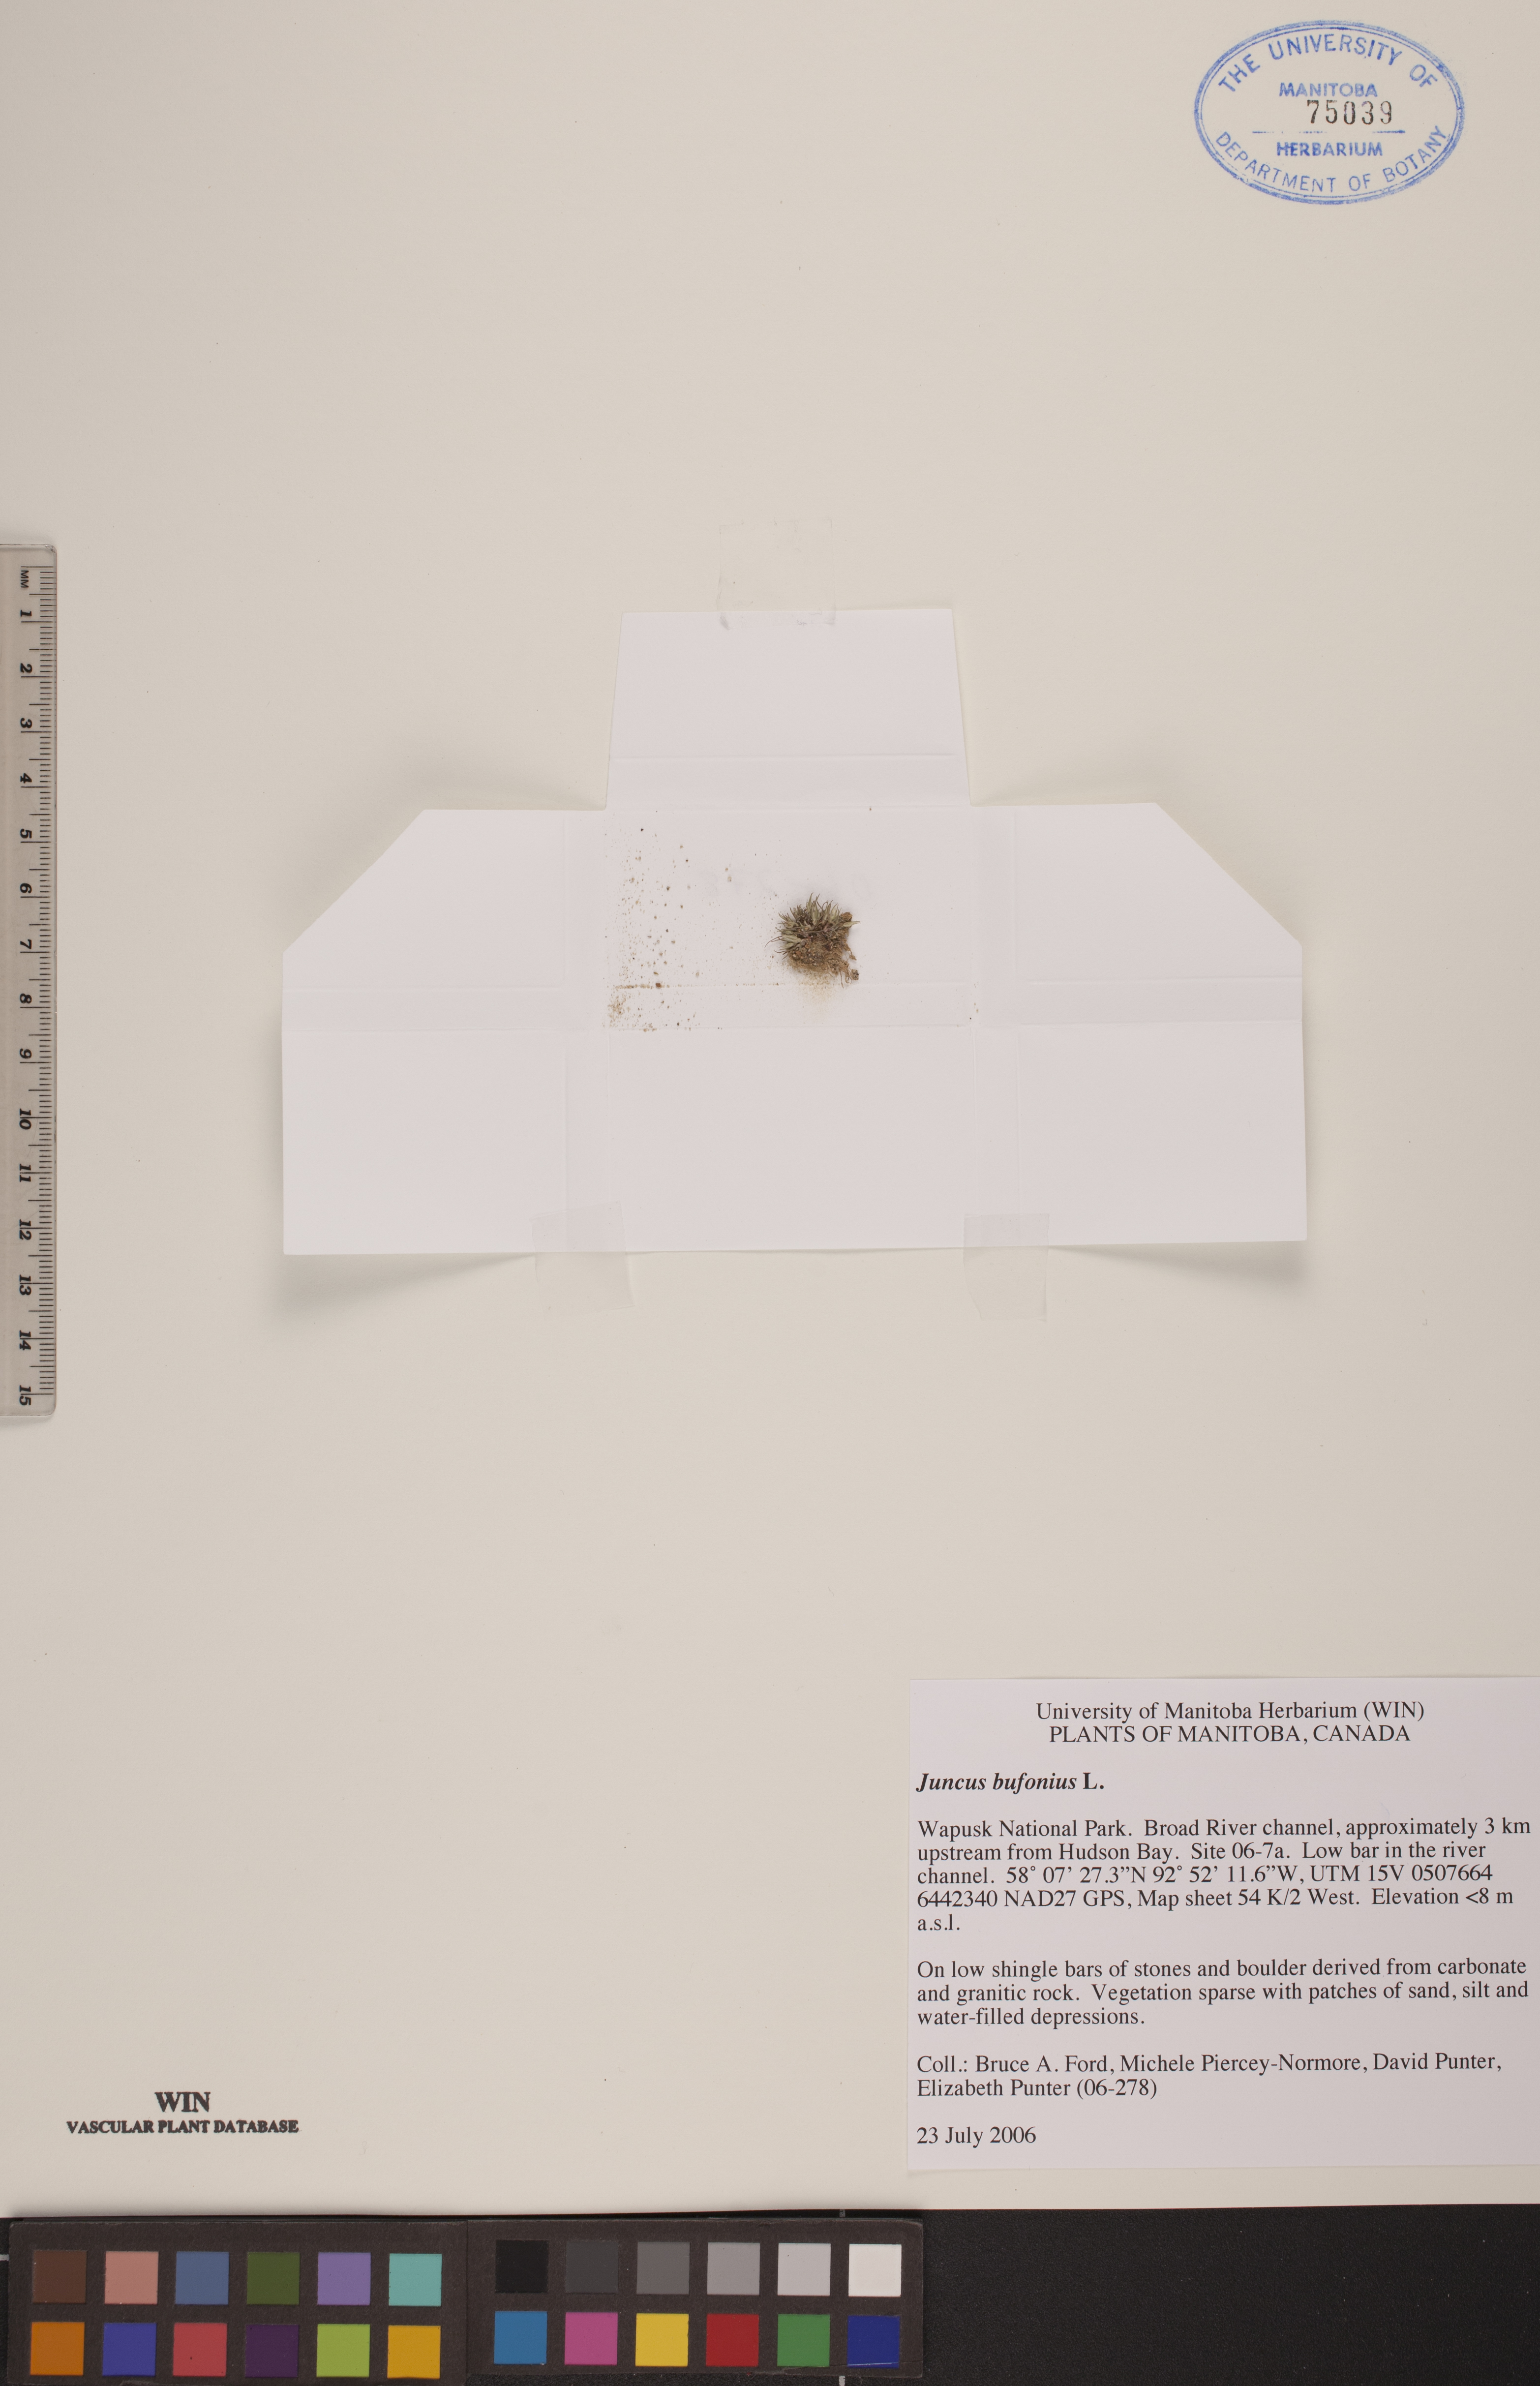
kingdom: Plantae
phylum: Tracheophyta
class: Liliopsida
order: Poales
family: Juncaceae
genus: Juncus
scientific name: Juncus bufonius
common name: Toad rush
